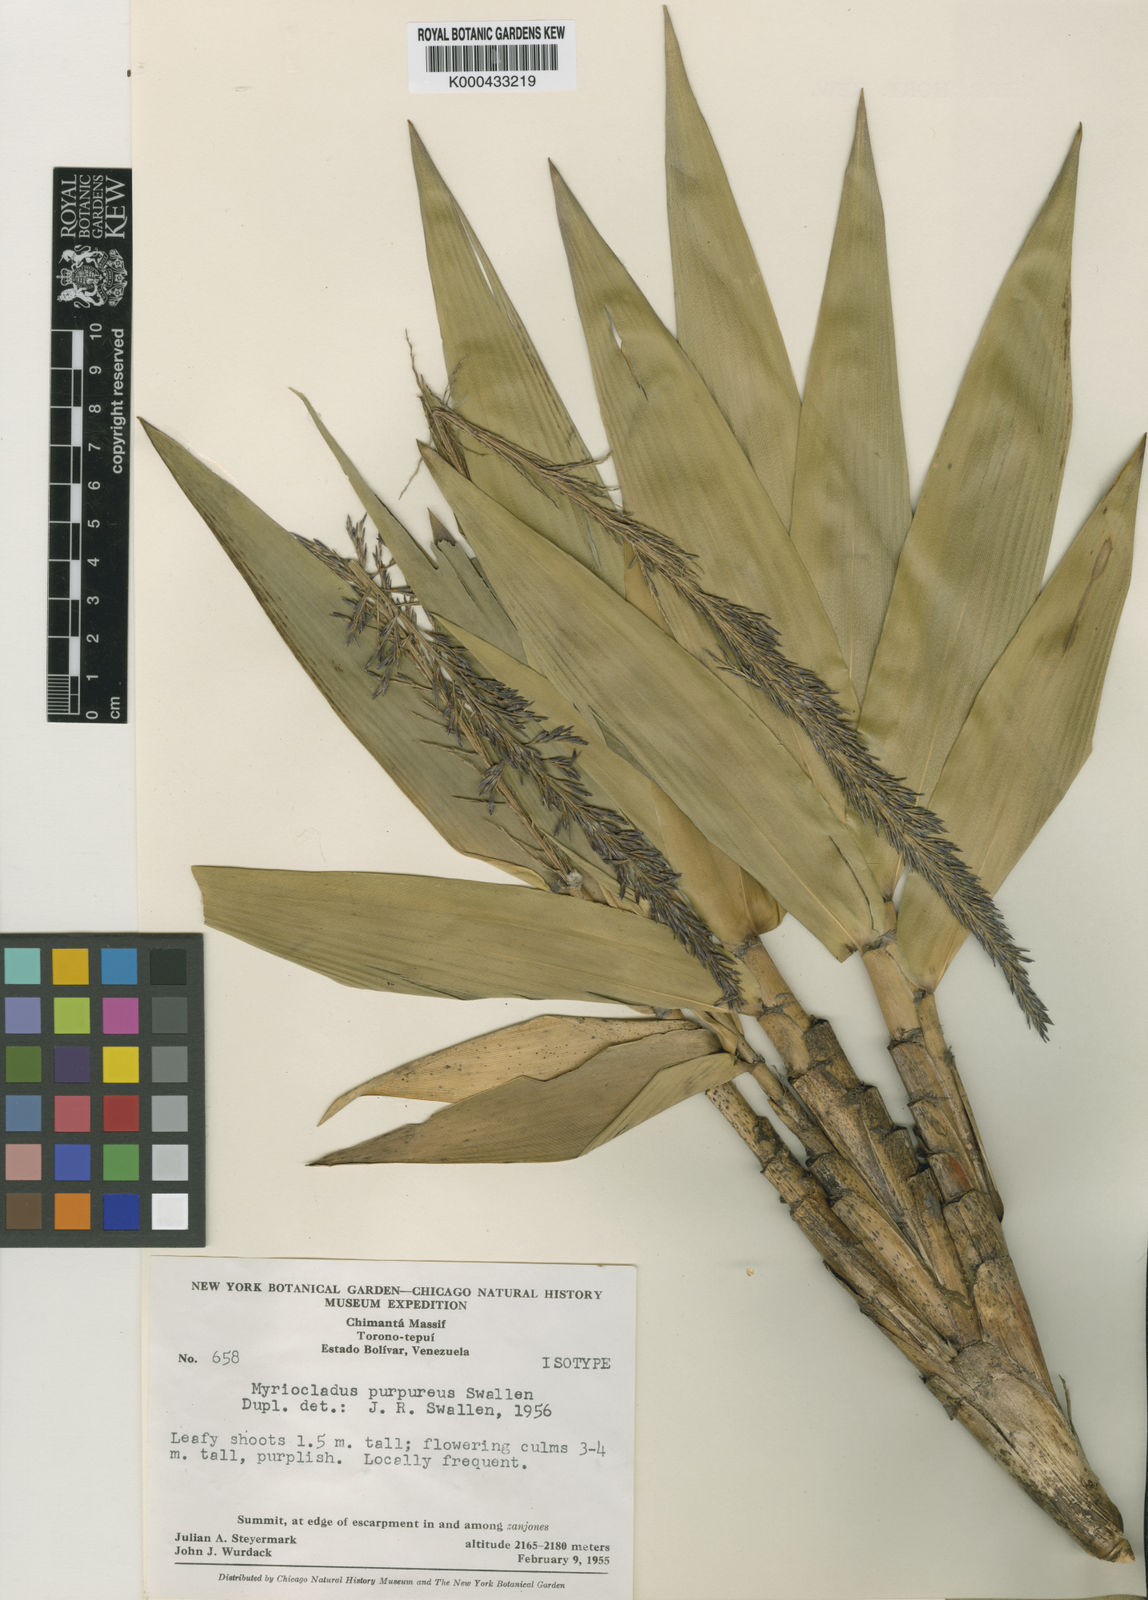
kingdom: Plantae
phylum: Tracheophyta
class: Liliopsida
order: Poales
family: Poaceae
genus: Myriocladus
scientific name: Myriocladus distantiflorus
